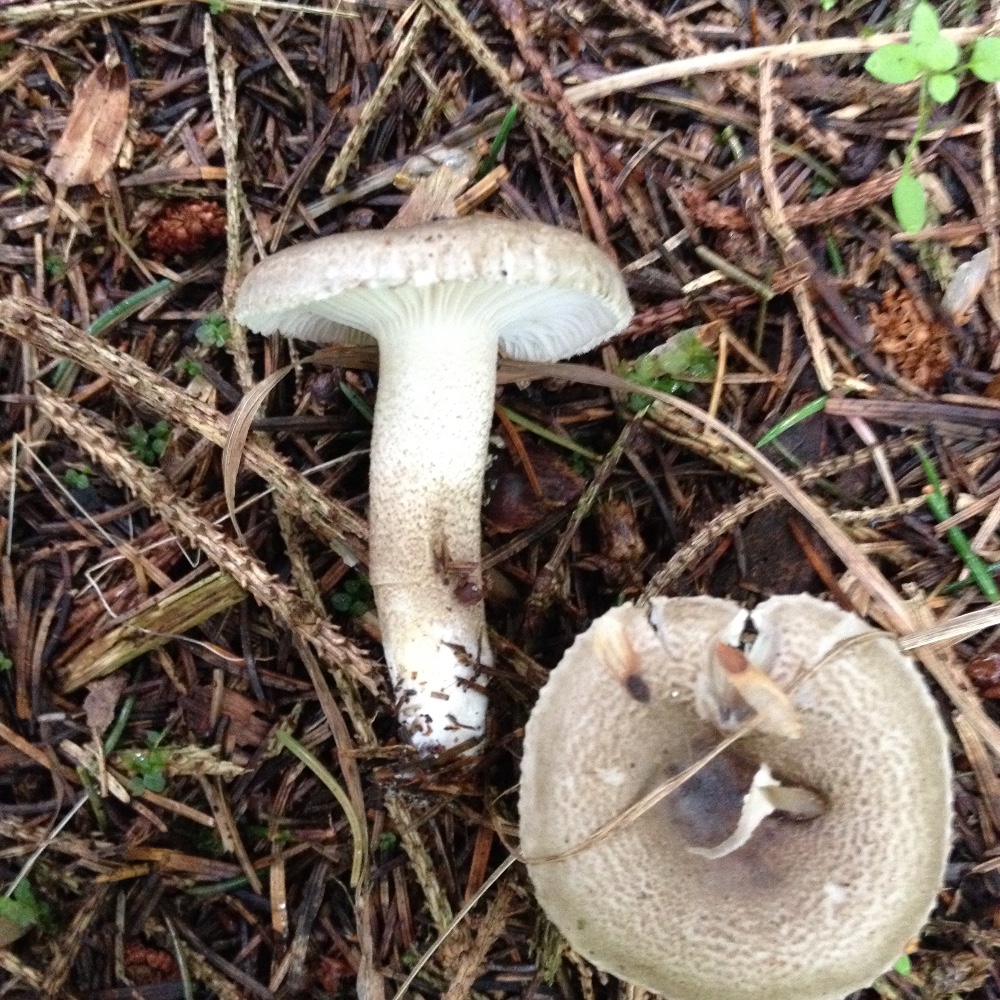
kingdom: Fungi
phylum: Basidiomycota
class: Agaricomycetes
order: Agaricales
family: Hygrophoraceae
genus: Hygrophorus
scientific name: Hygrophorus pustulatus
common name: mørkprikket sneglehat
